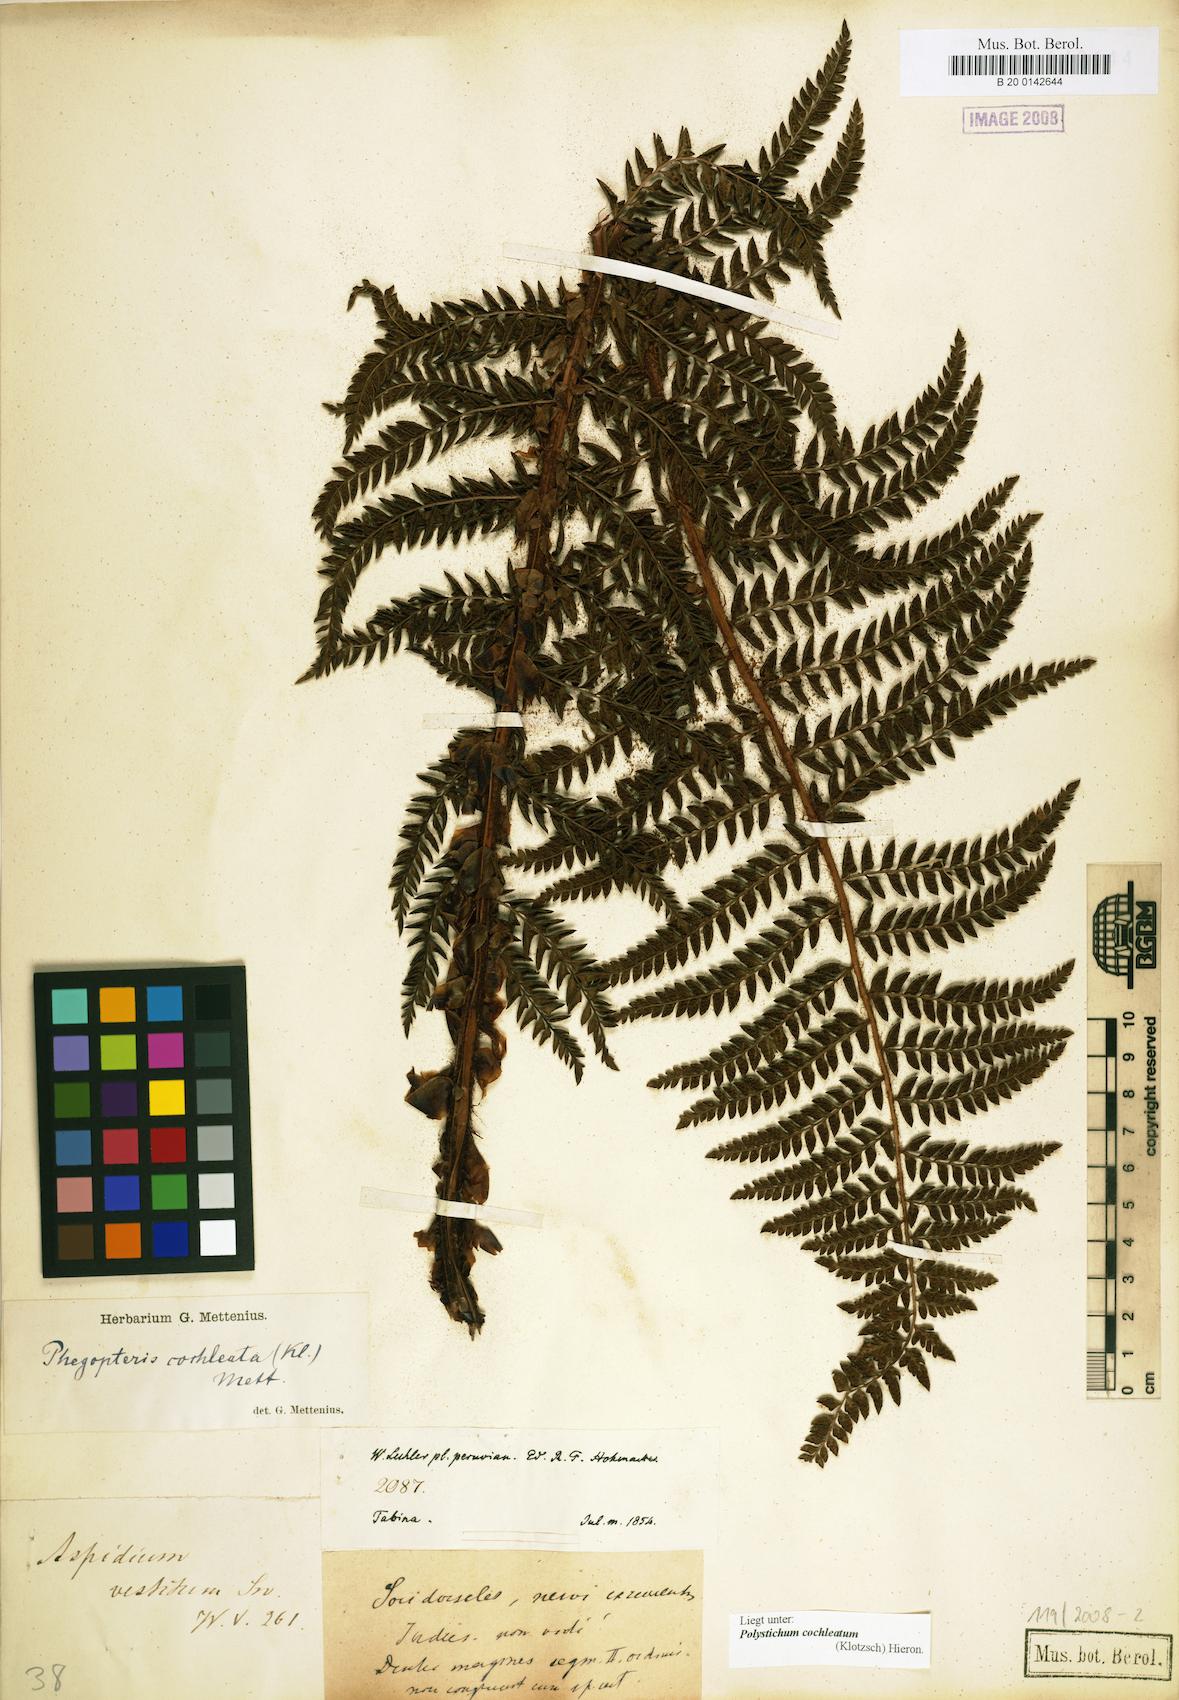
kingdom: Plantae
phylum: Tracheophyta
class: Polypodiopsida
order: Polypodiales
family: Dryopteridaceae
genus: Polystichum
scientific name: Polystichum cochleatum
